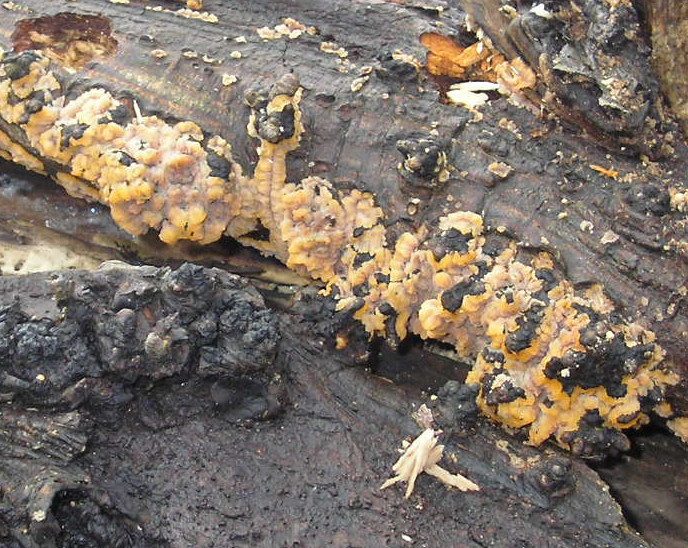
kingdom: Fungi
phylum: Basidiomycota
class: Agaricomycetes
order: Polyporales
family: Meruliaceae
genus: Phlebia
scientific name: Phlebia radiata
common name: stråle-åresvamp
